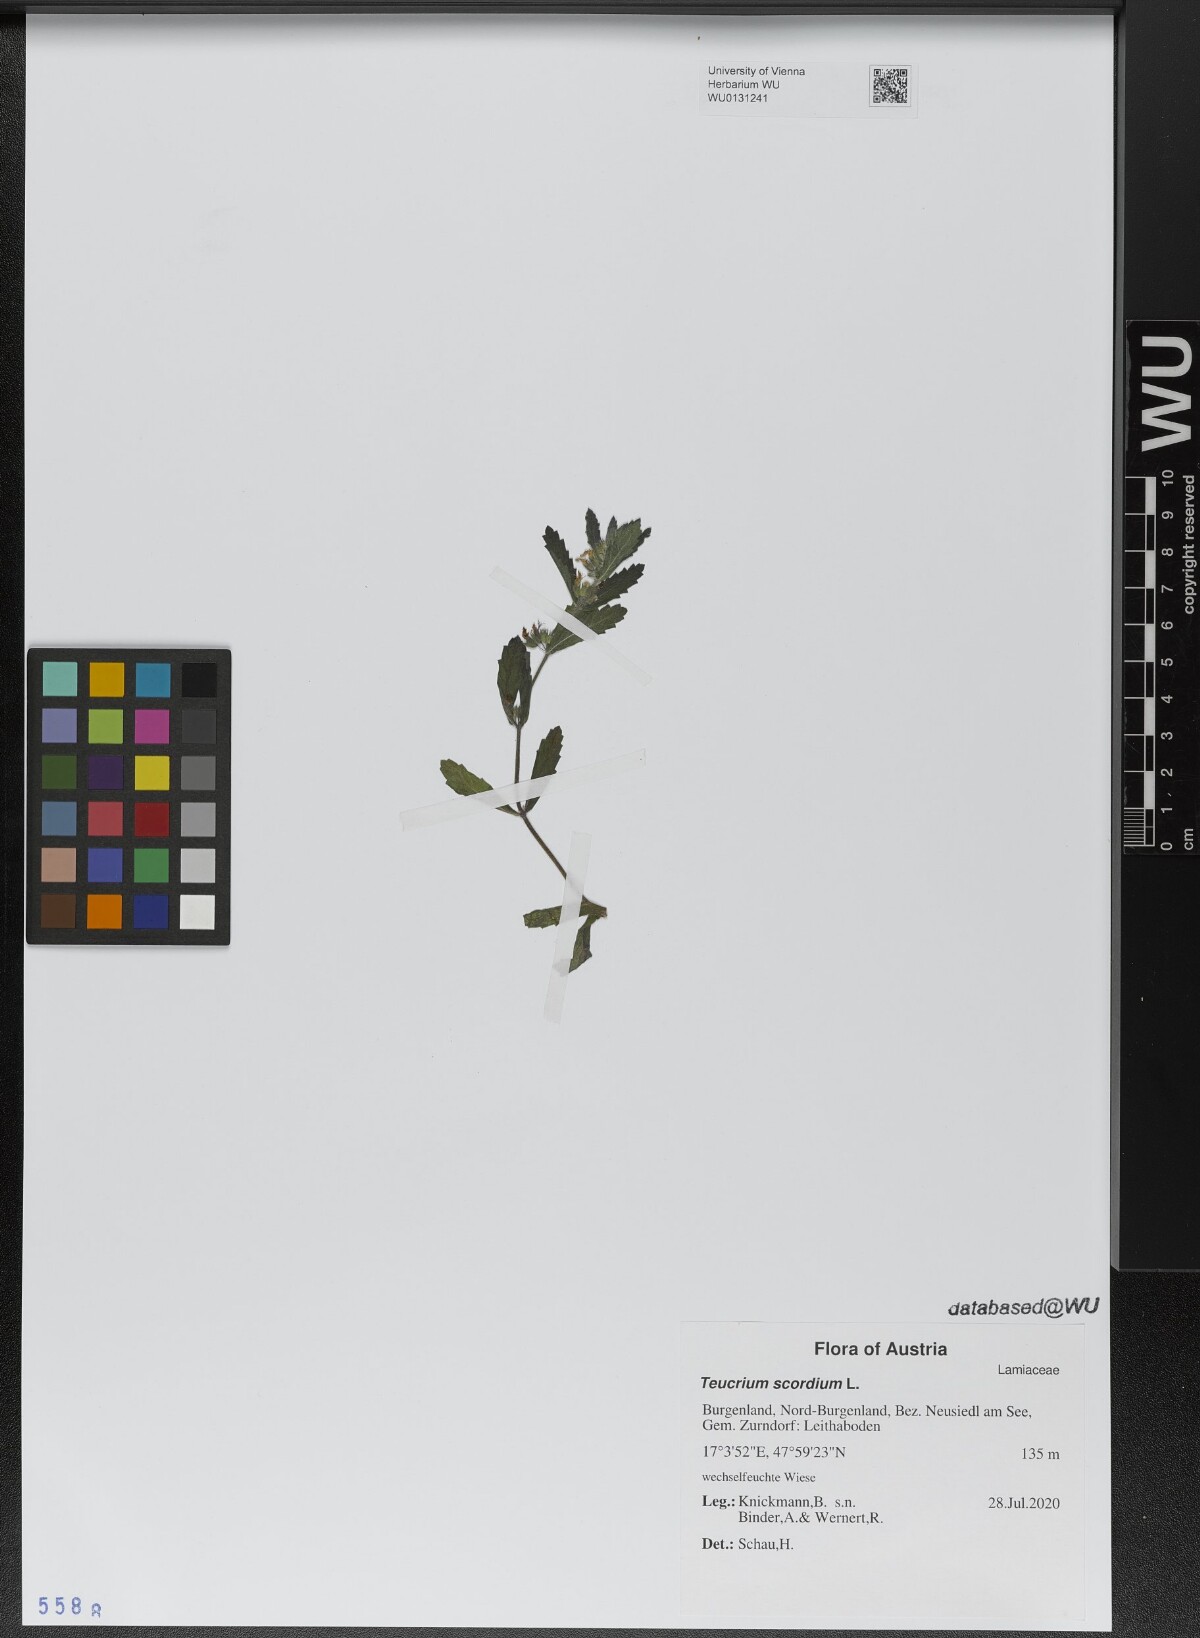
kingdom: Plantae
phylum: Tracheophyta
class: Magnoliopsida
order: Lamiales
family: Lamiaceae
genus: Teucrium
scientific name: Teucrium scordium
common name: Water germander
